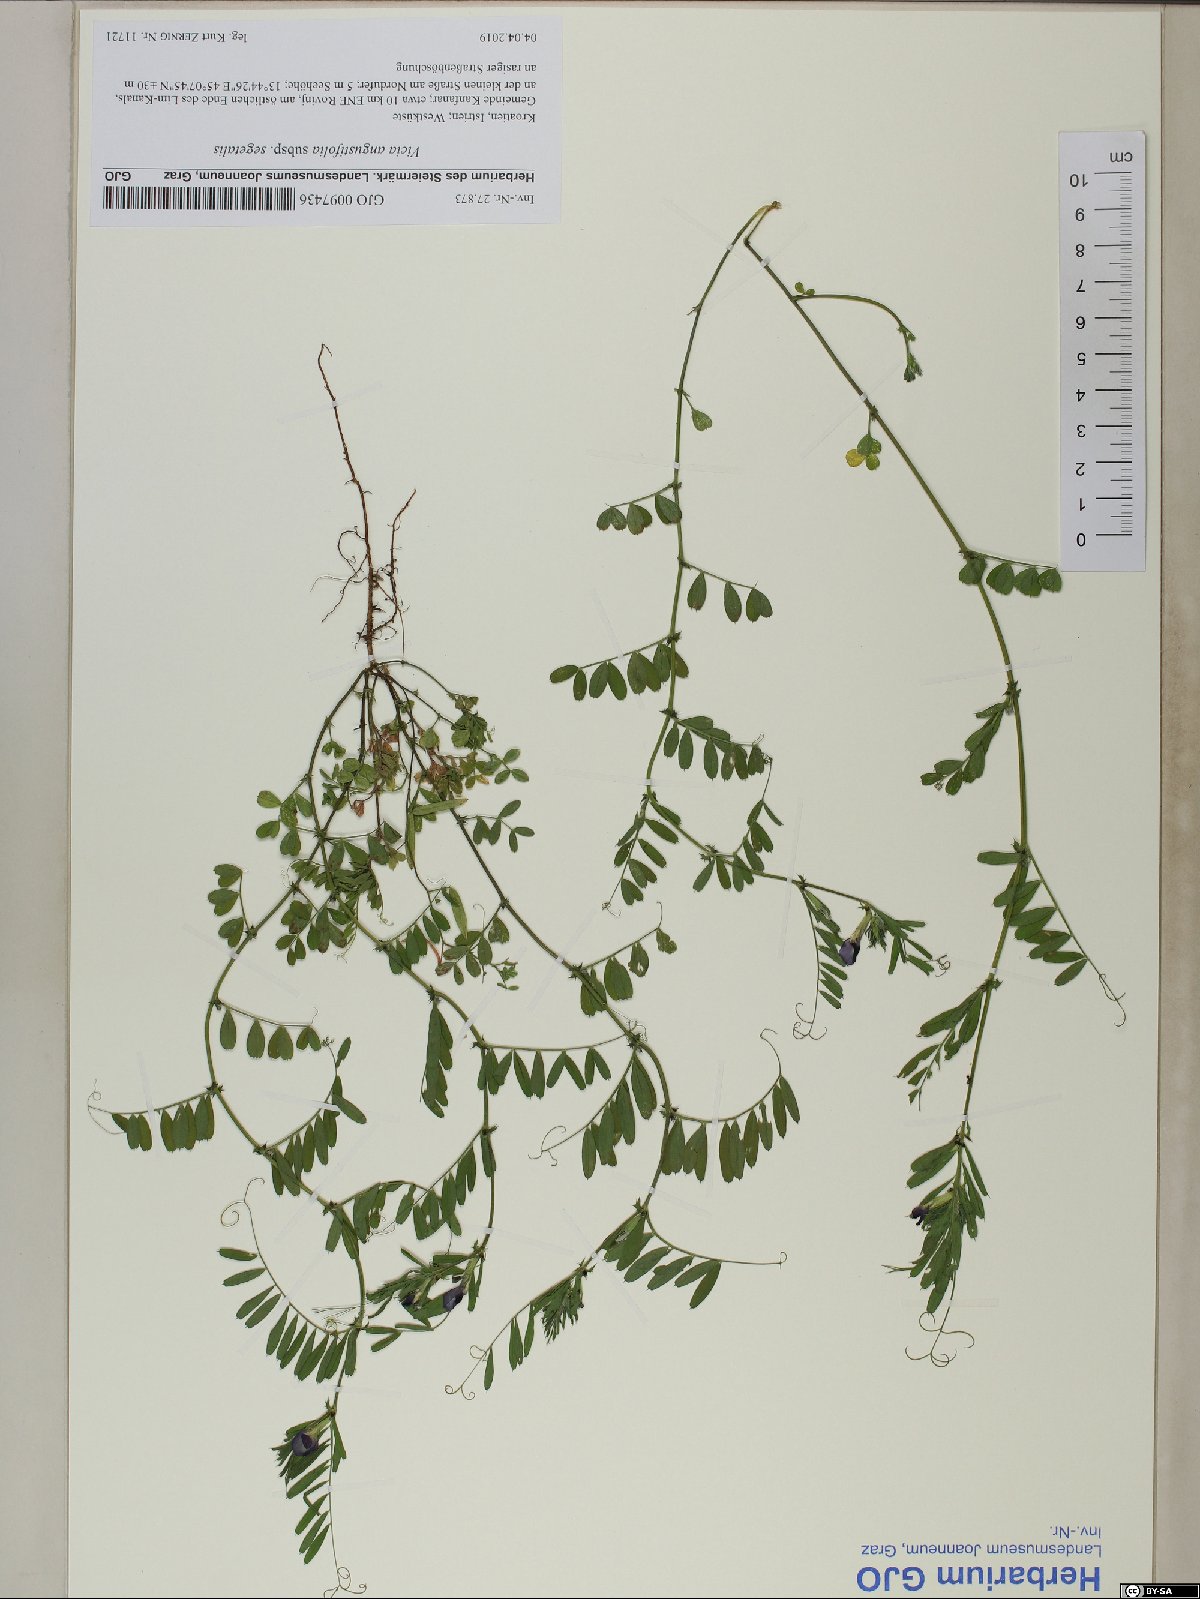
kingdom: Plantae
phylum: Tracheophyta
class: Magnoliopsida
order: Fabales
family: Fabaceae
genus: Vicia
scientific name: Vicia sativa
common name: Garden vetch
